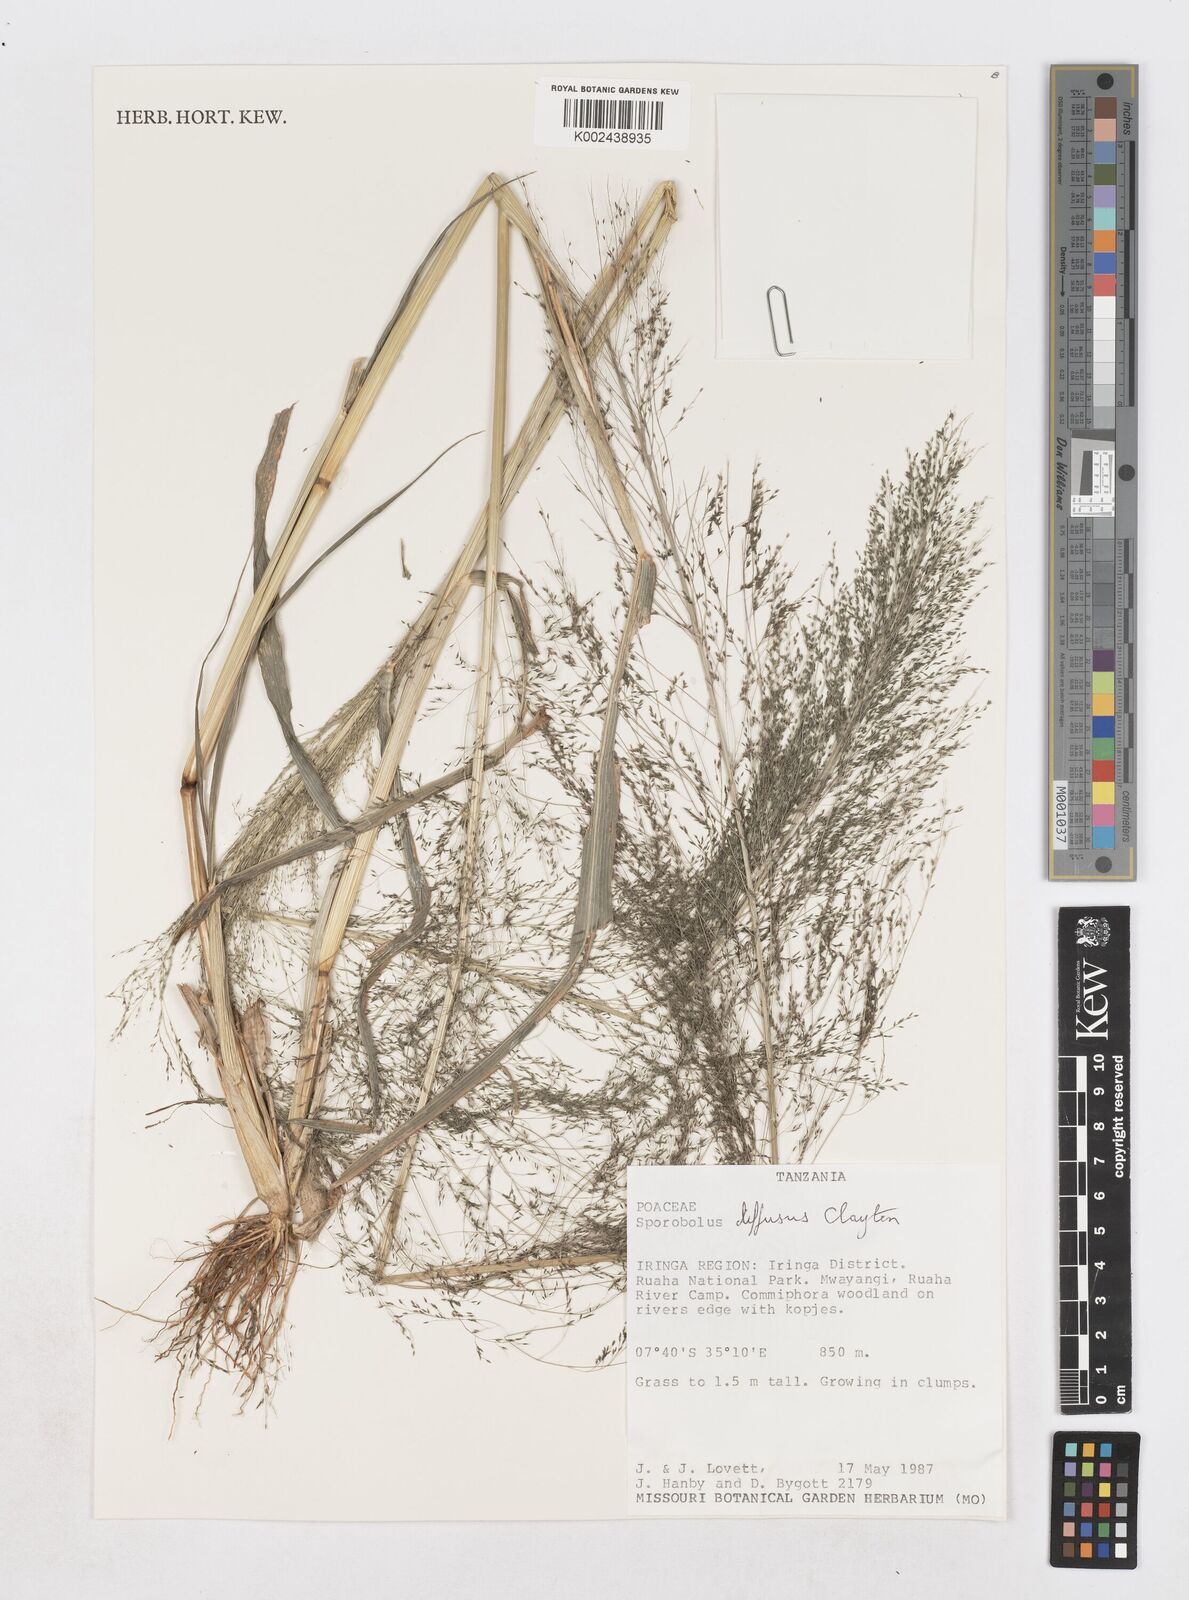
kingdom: Plantae
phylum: Tracheophyta
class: Liliopsida
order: Poales
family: Poaceae
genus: Sporobolus
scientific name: Sporobolus macranthelus
